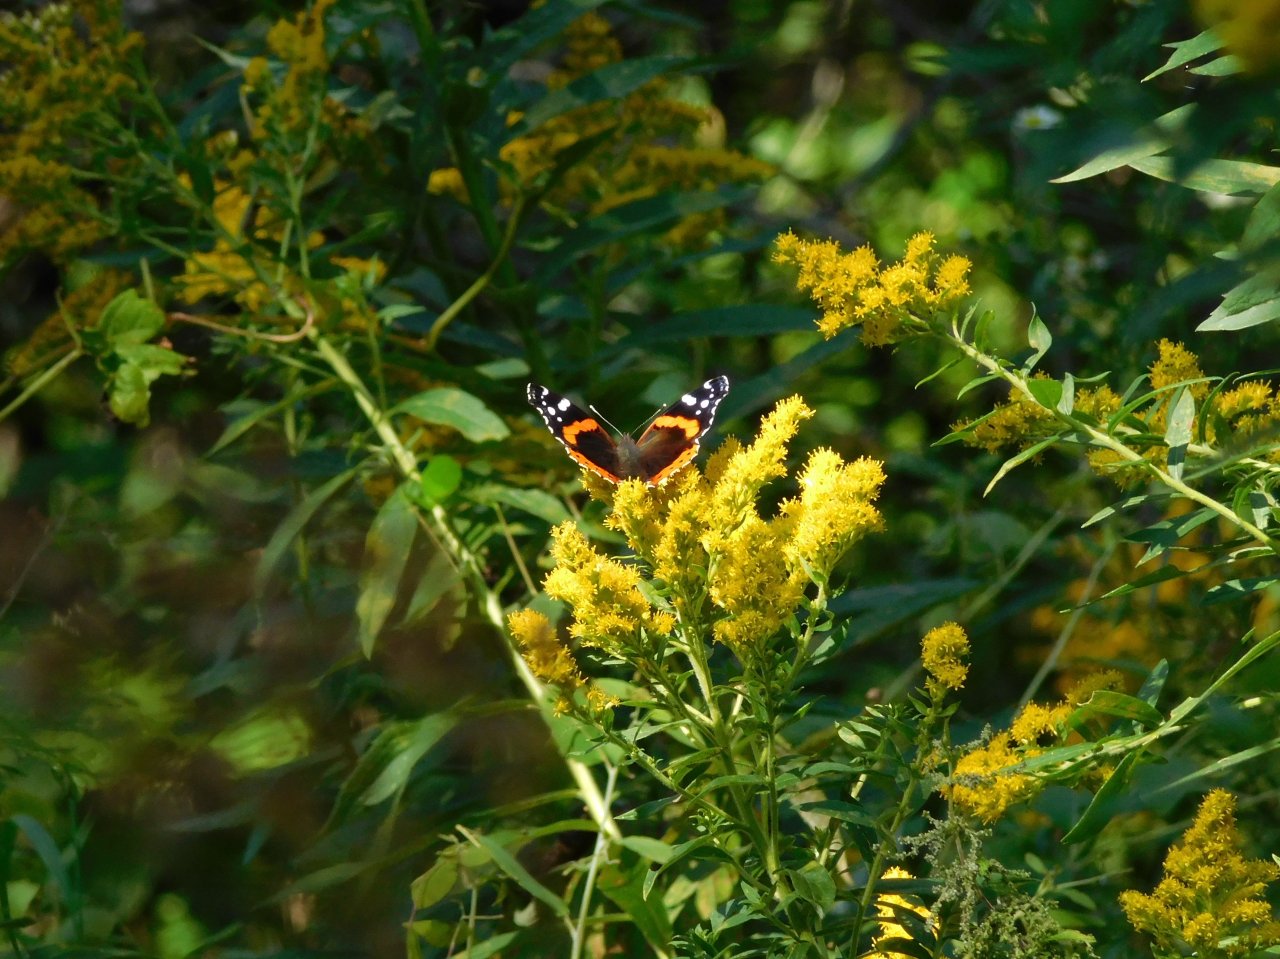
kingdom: Animalia
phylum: Arthropoda
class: Insecta
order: Lepidoptera
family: Nymphalidae
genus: Vanessa
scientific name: Vanessa atalanta
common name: Red Admiral
